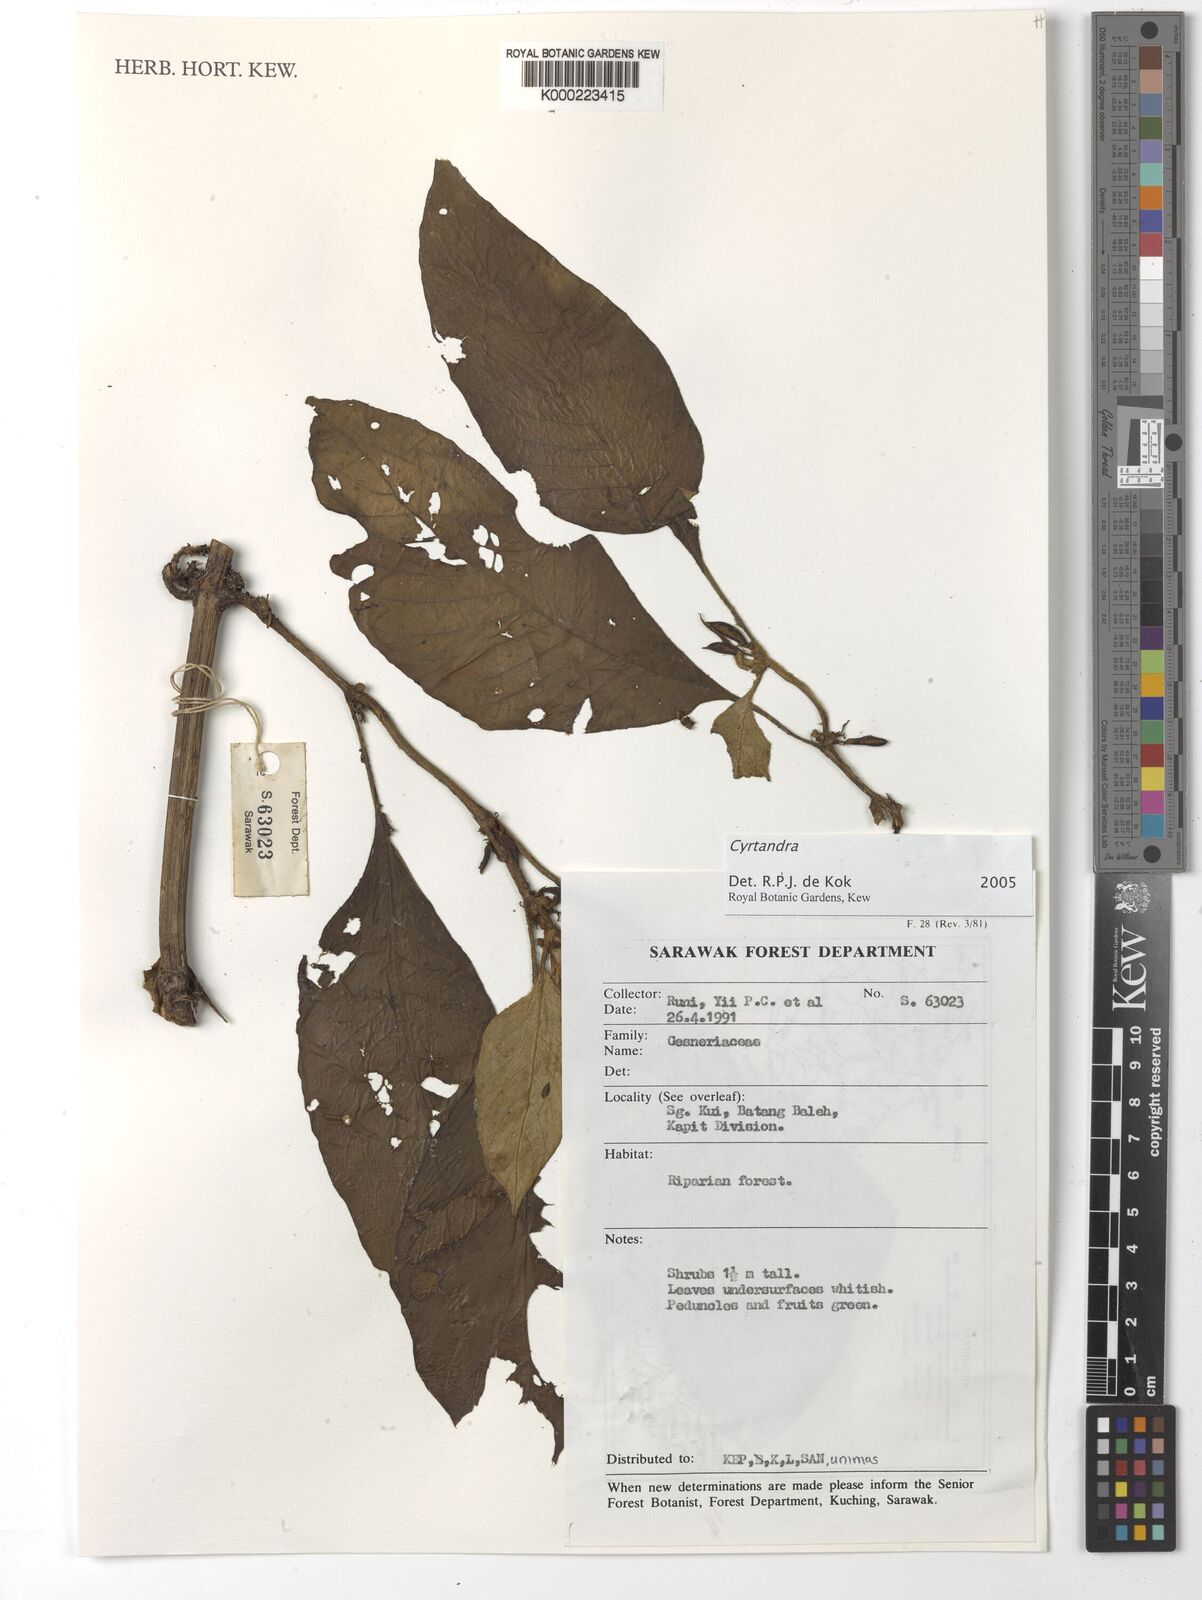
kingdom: Plantae
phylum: Tracheophyta
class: Magnoliopsida
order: Lamiales
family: Gesneriaceae
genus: Cyrtandra
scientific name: Cyrtandra
